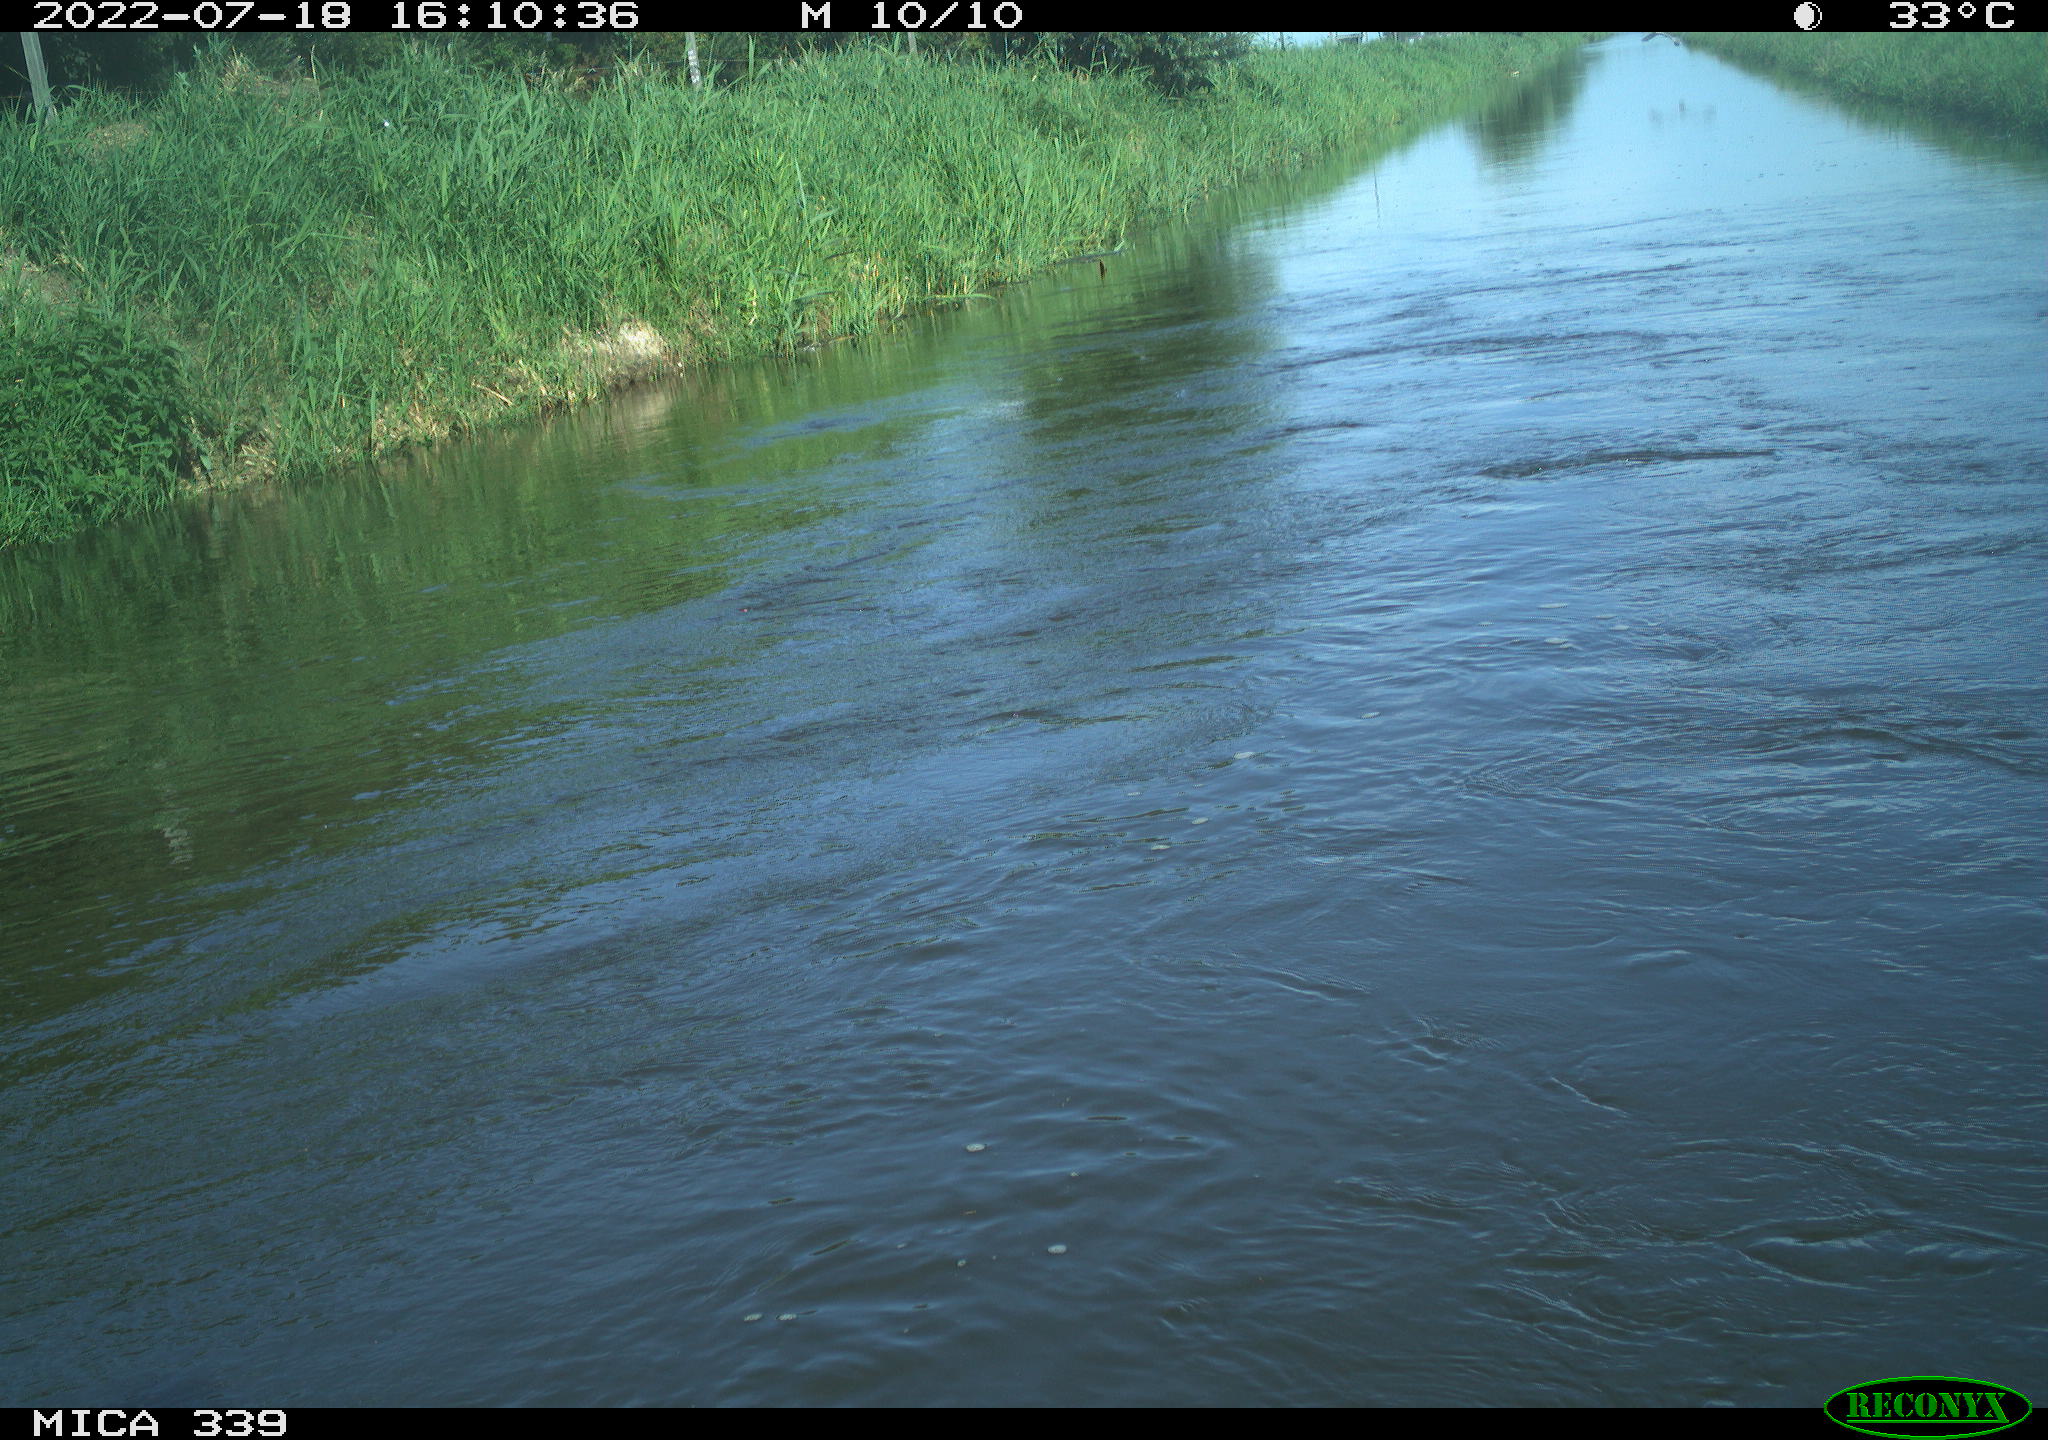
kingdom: Animalia
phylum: Chordata
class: Aves
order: Pelecaniformes
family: Ardeidae
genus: Ardea
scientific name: Ardea cinerea
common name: Grey heron
